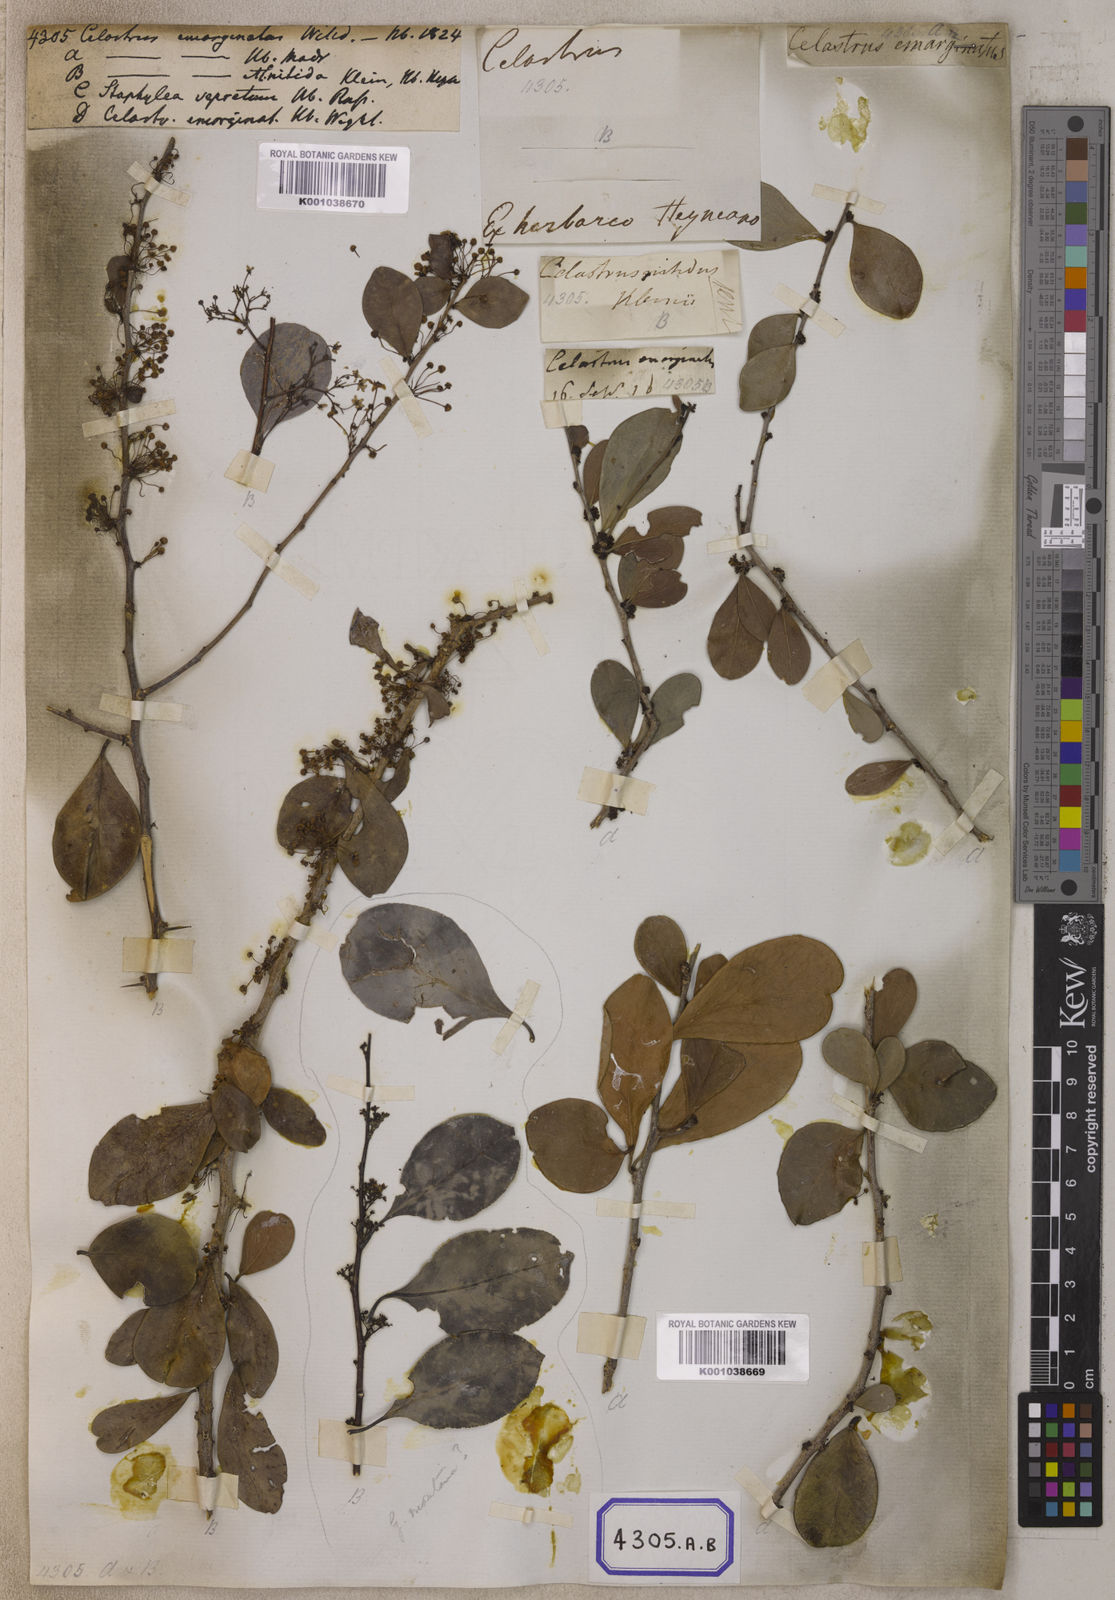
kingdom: Plantae
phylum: Tracheophyta
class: Magnoliopsida
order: Celastrales
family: Celastraceae
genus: Gymnosporia
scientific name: Gymnosporia emarginata
